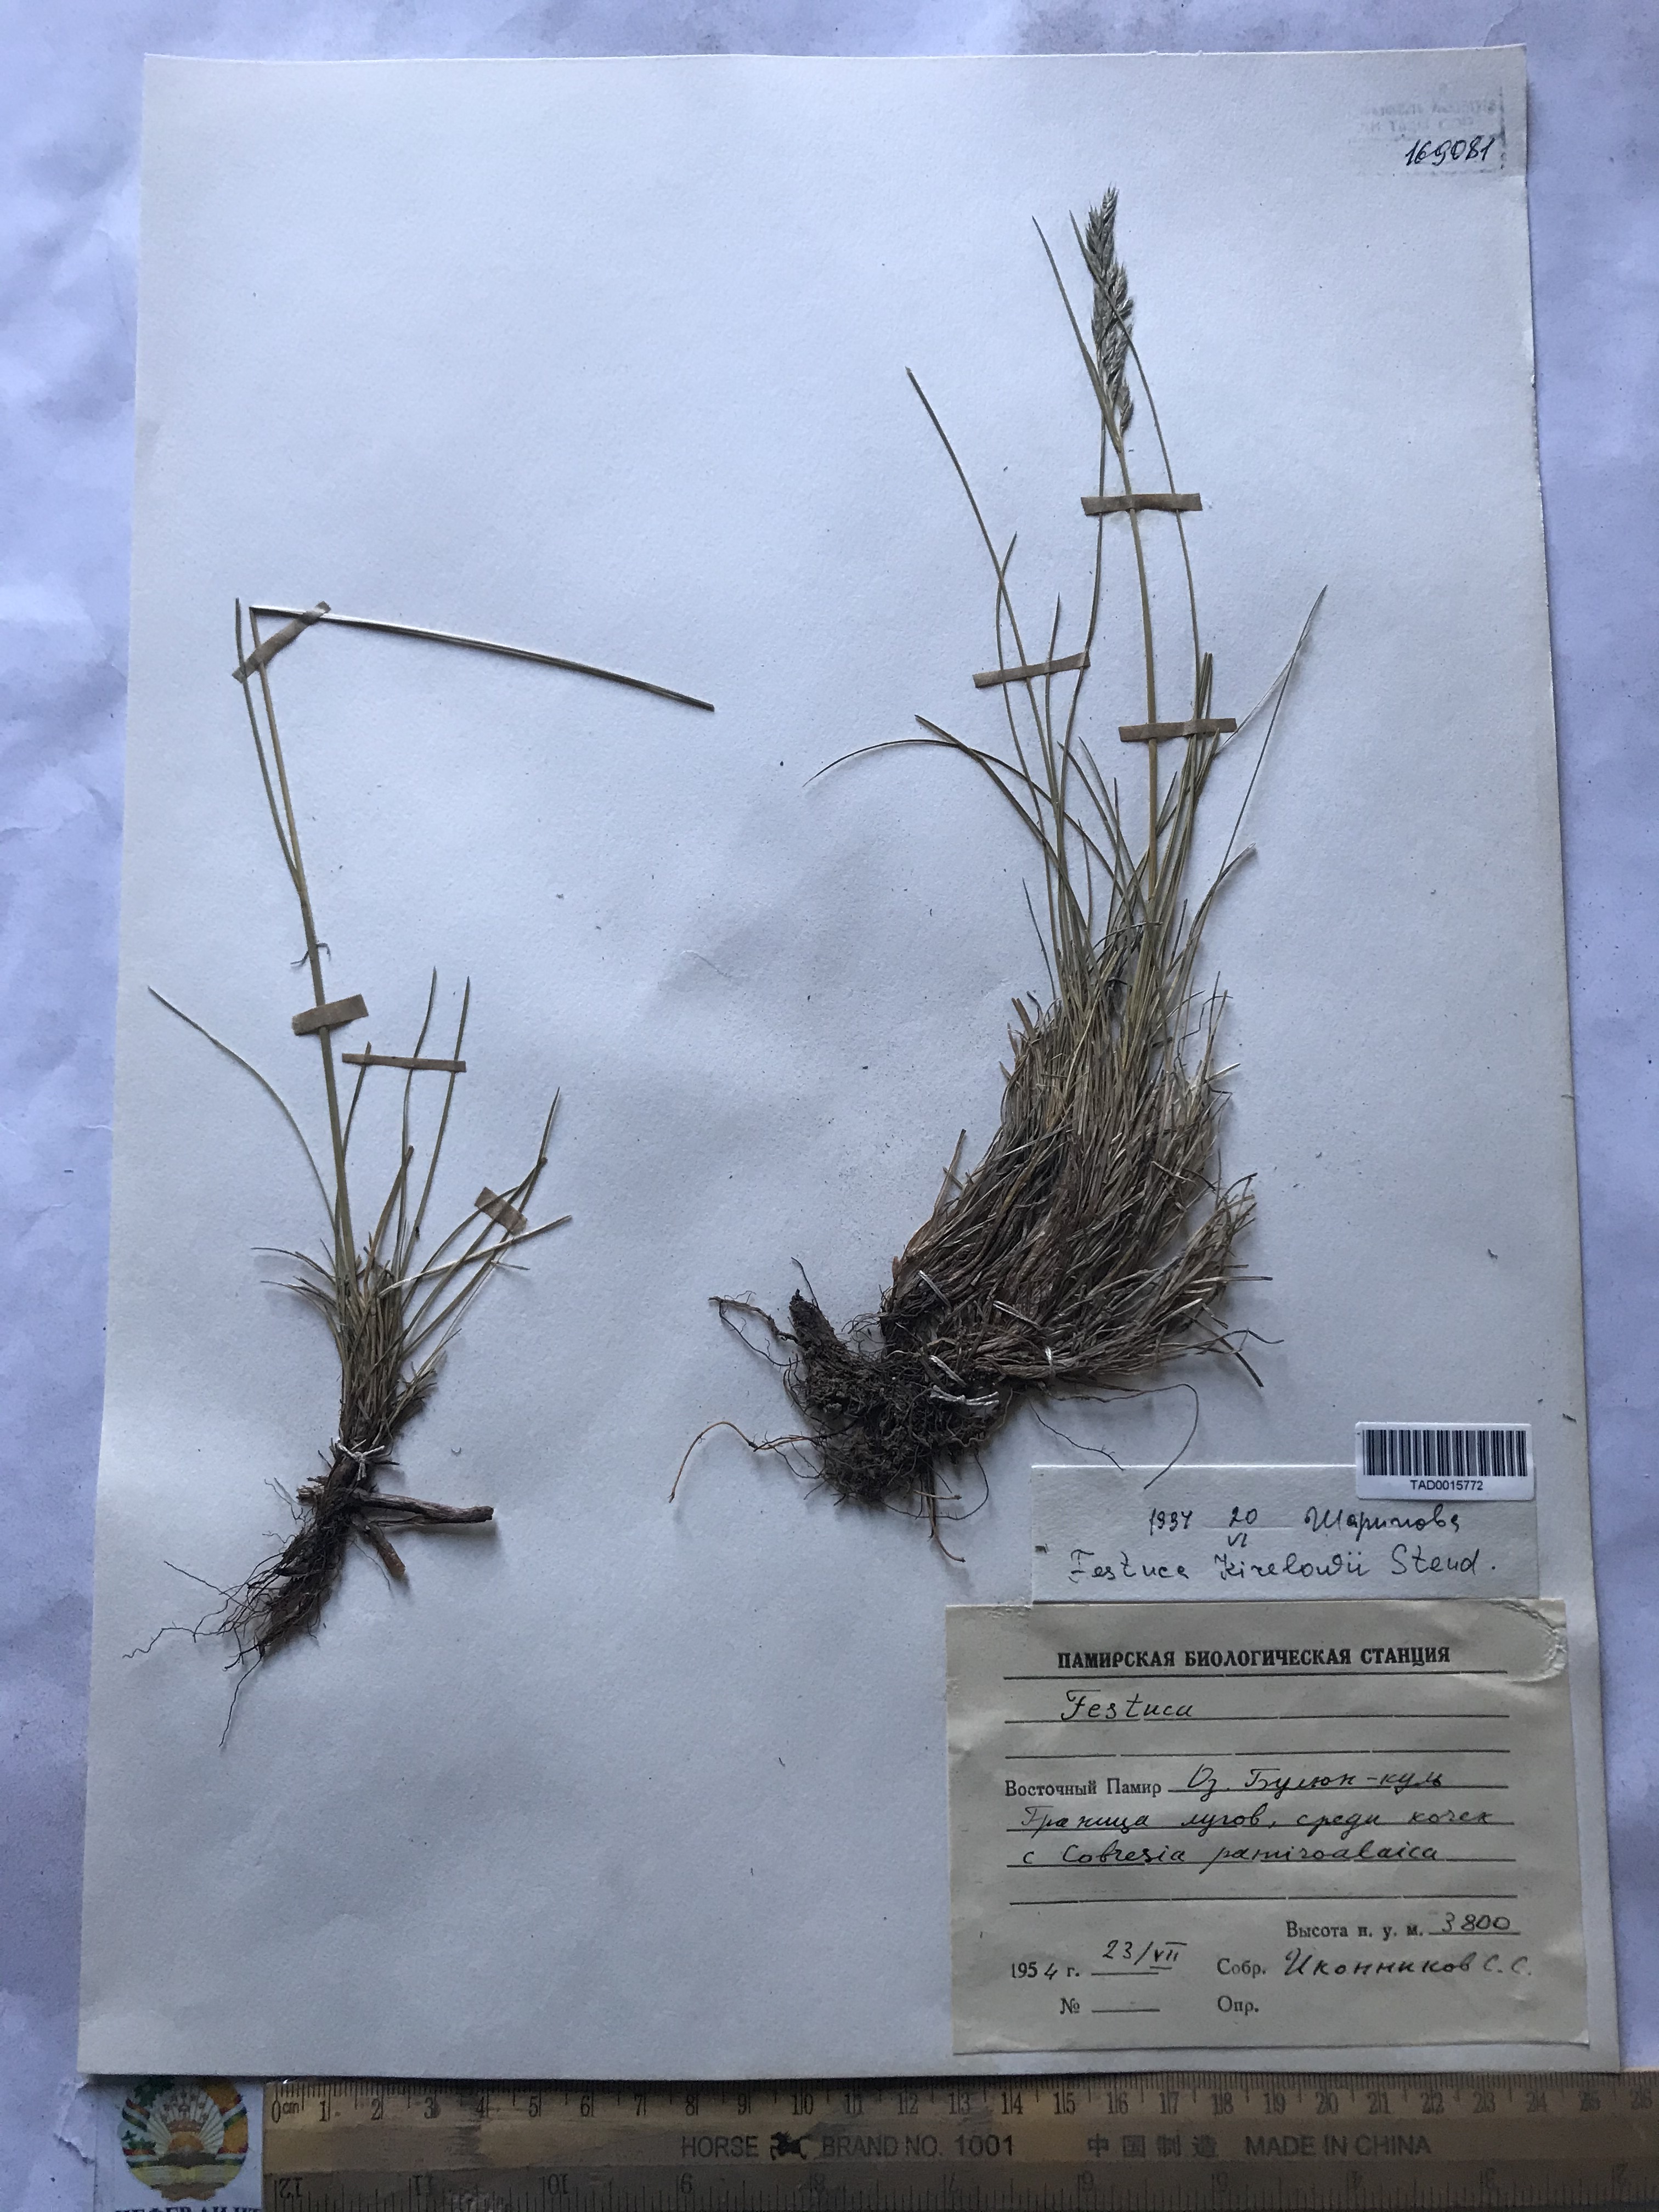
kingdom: Plantae
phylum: Tracheophyta
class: Liliopsida
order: Poales
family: Poaceae
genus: Festuca
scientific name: Festuca rubra
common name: Red fescue
